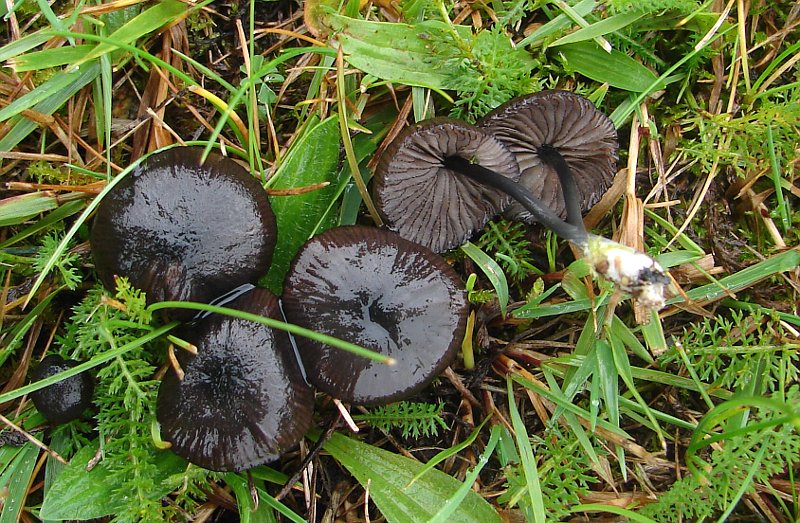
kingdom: Fungi
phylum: Basidiomycota
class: Agaricomycetes
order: Agaricales
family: Entolomataceae
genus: Entoloma
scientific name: Entoloma
